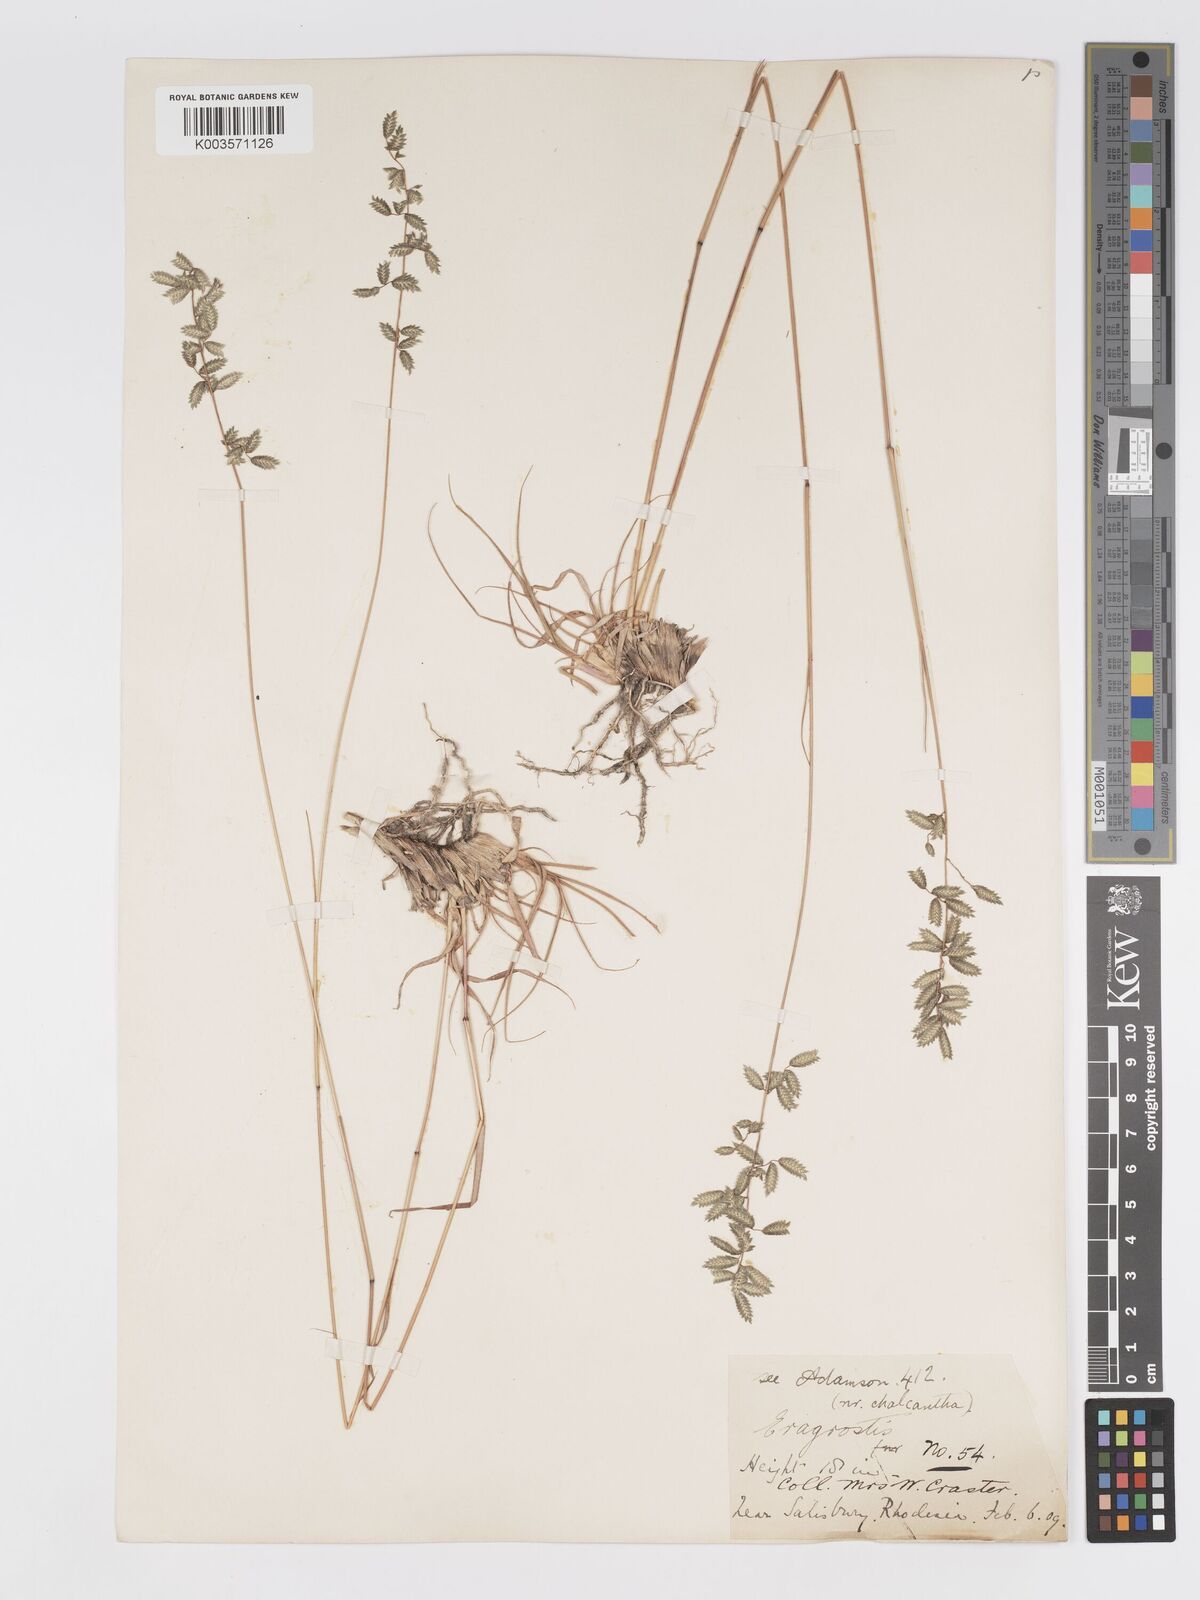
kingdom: Plantae
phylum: Tracheophyta
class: Liliopsida
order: Poales
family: Poaceae
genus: Eragrostis
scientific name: Eragrostis nindensis
